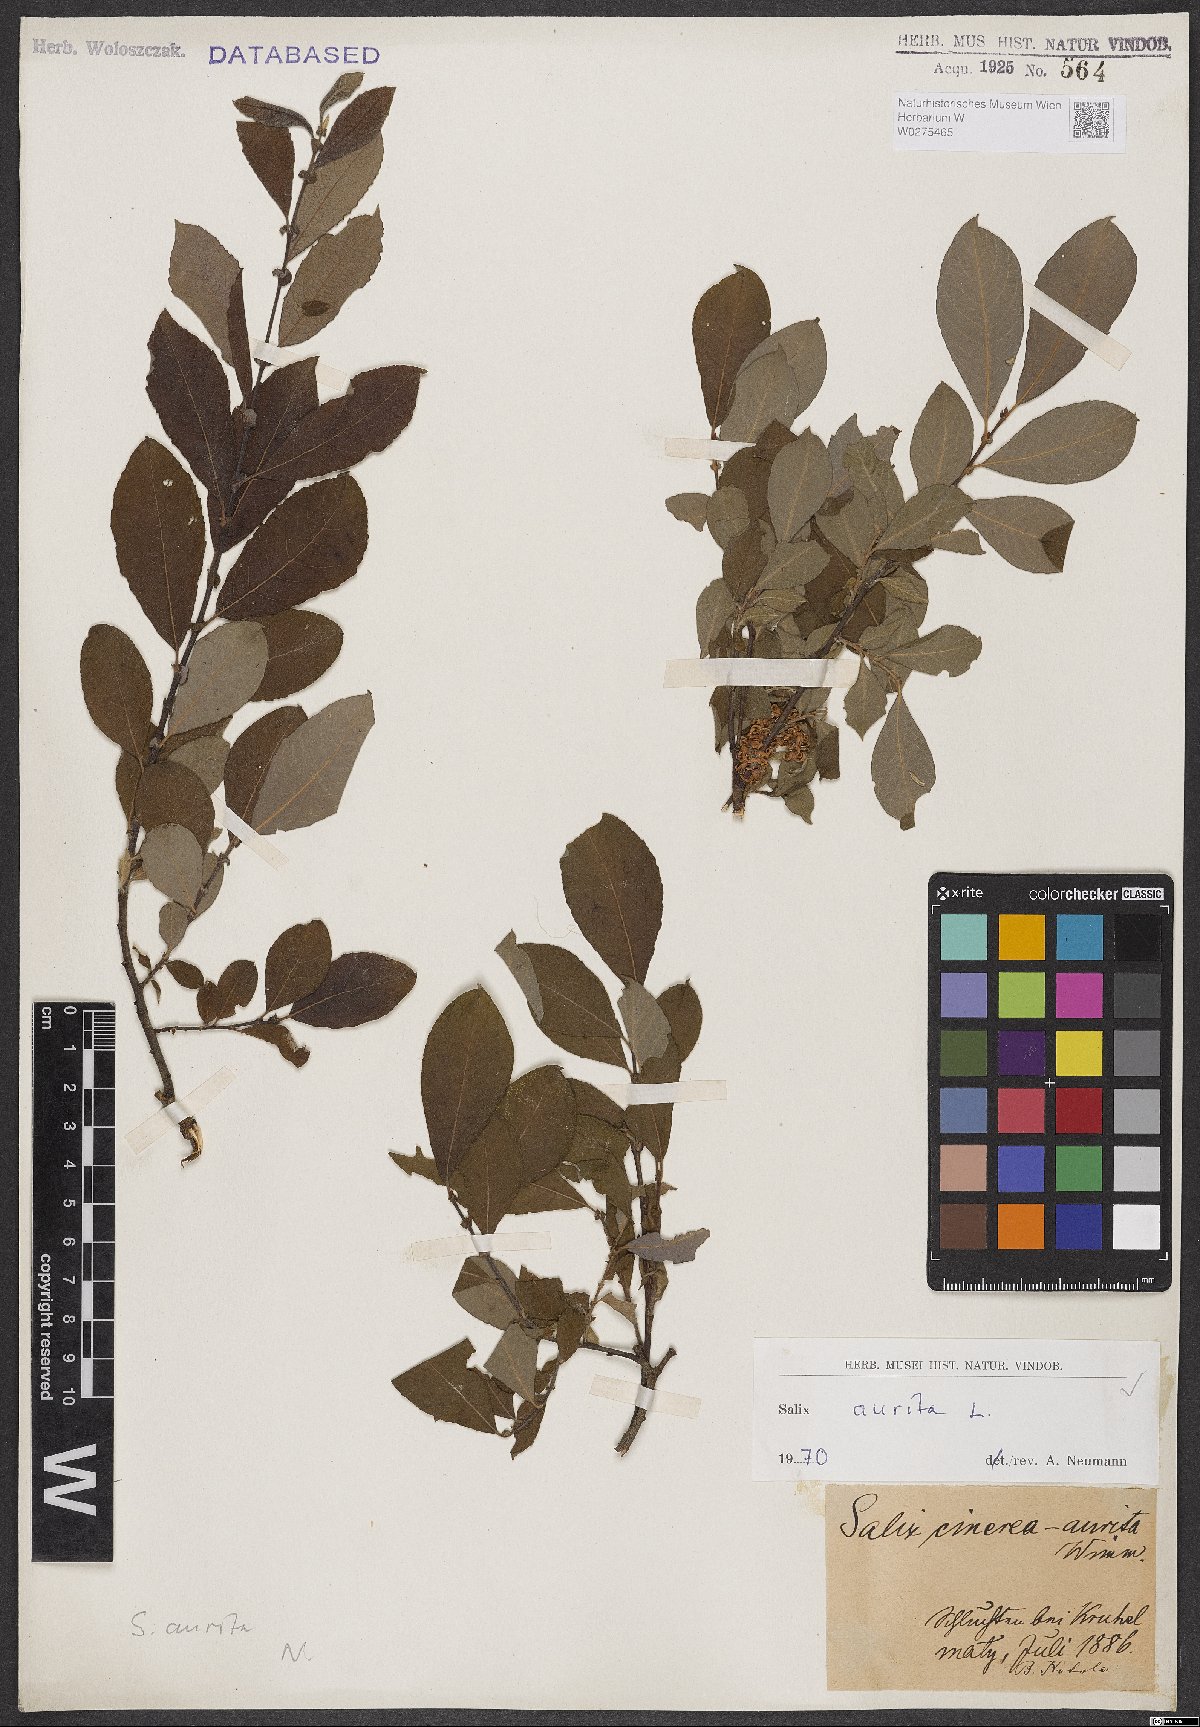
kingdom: Plantae
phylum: Tracheophyta
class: Magnoliopsida
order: Malpighiales
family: Salicaceae
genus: Salix
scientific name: Salix aurita
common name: Eared willow
